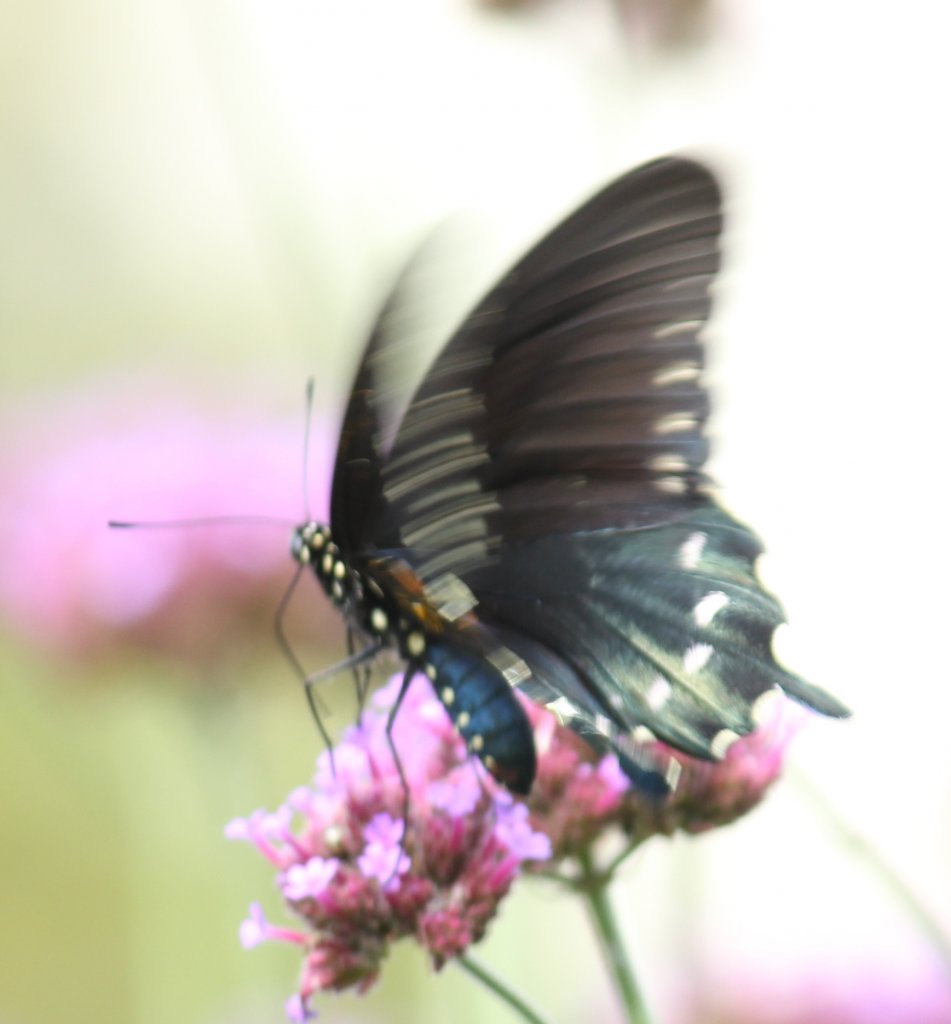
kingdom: Animalia
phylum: Arthropoda
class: Insecta
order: Lepidoptera
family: Papilionidae
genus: Battus
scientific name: Battus philenor
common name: Pipevine Swallowtail
